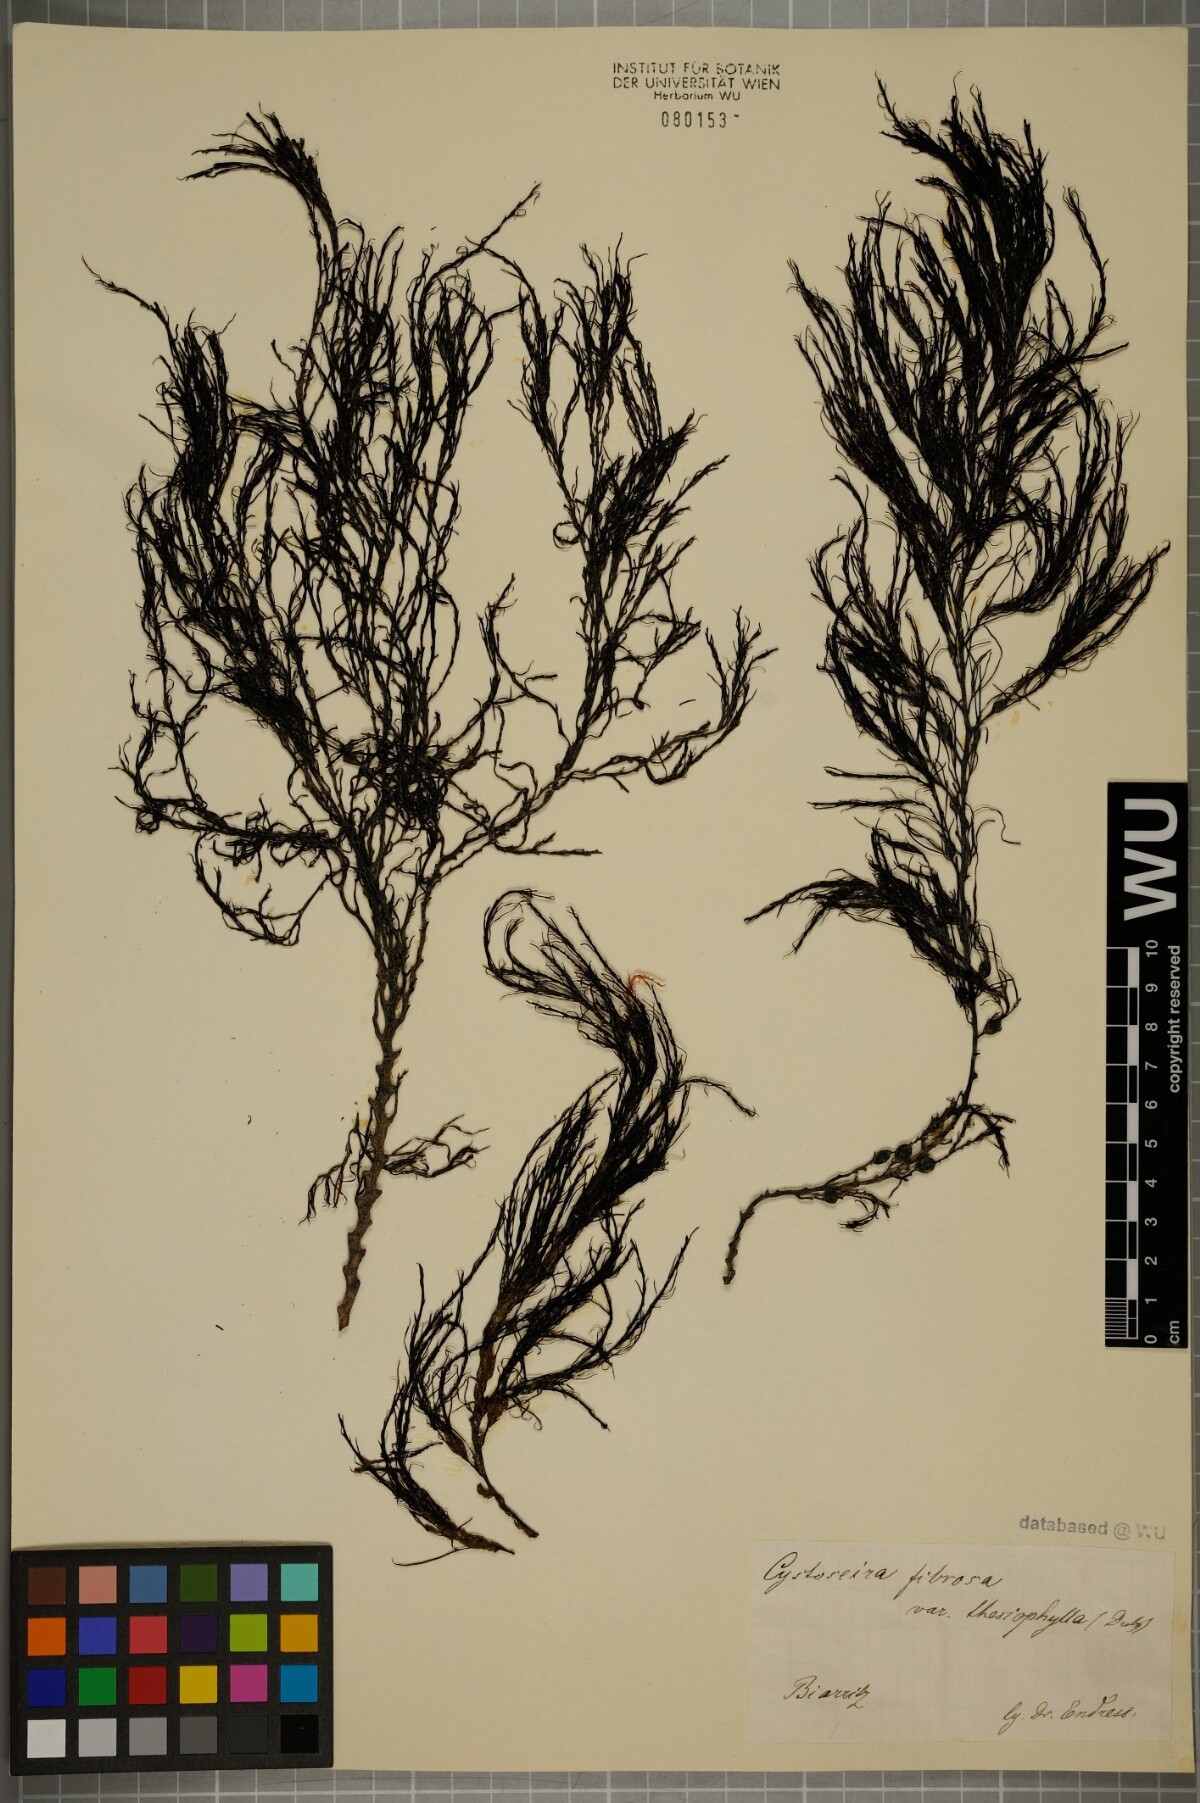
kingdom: Chromista
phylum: Ochrophyta
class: Phaeophyceae
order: Fucales
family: Sargassaceae
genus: Cystoseira
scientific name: Cystoseira Gongolaria baccata
